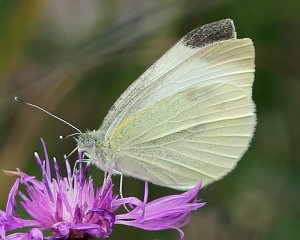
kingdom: Animalia
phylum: Arthropoda
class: Insecta
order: Lepidoptera
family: Pieridae
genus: Pieris
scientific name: Pieris rapae
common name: Cabbage White
